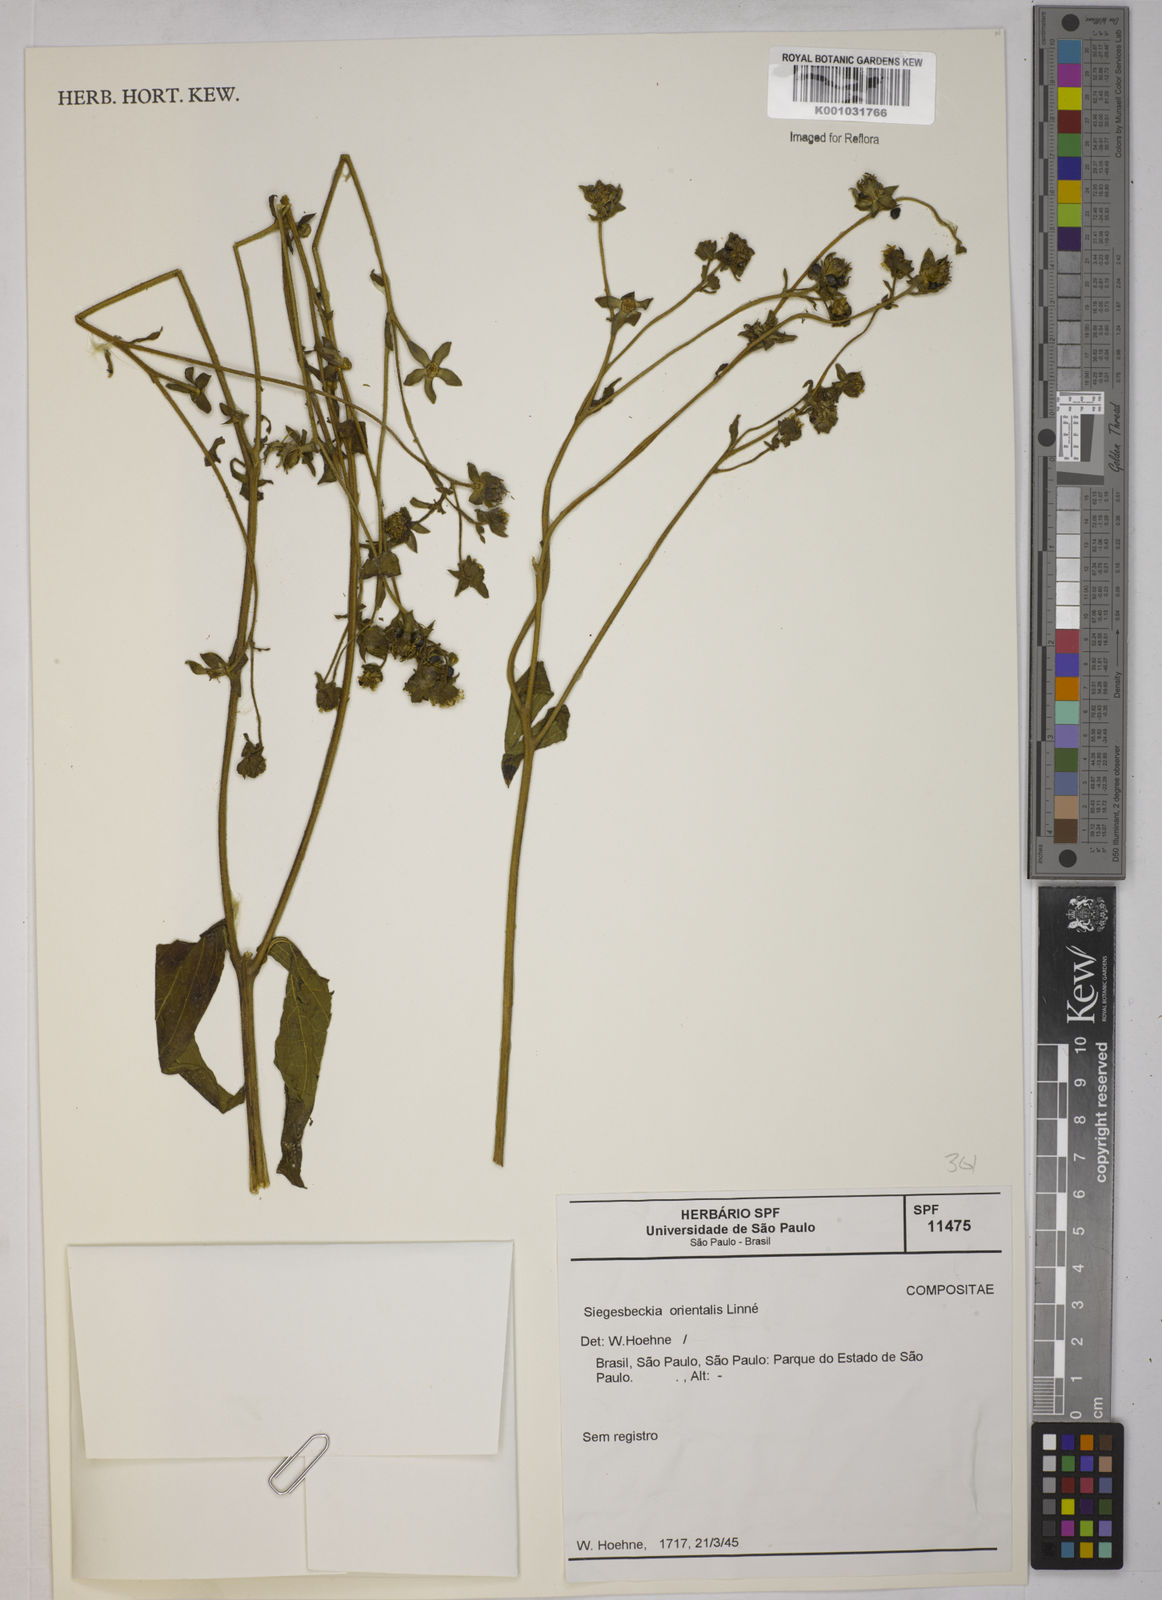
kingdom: Plantae
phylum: Tracheophyta
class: Magnoliopsida
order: Asterales
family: Asteraceae
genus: Sigesbeckia
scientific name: Sigesbeckia orientalis
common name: Eastern st paul's-wort
